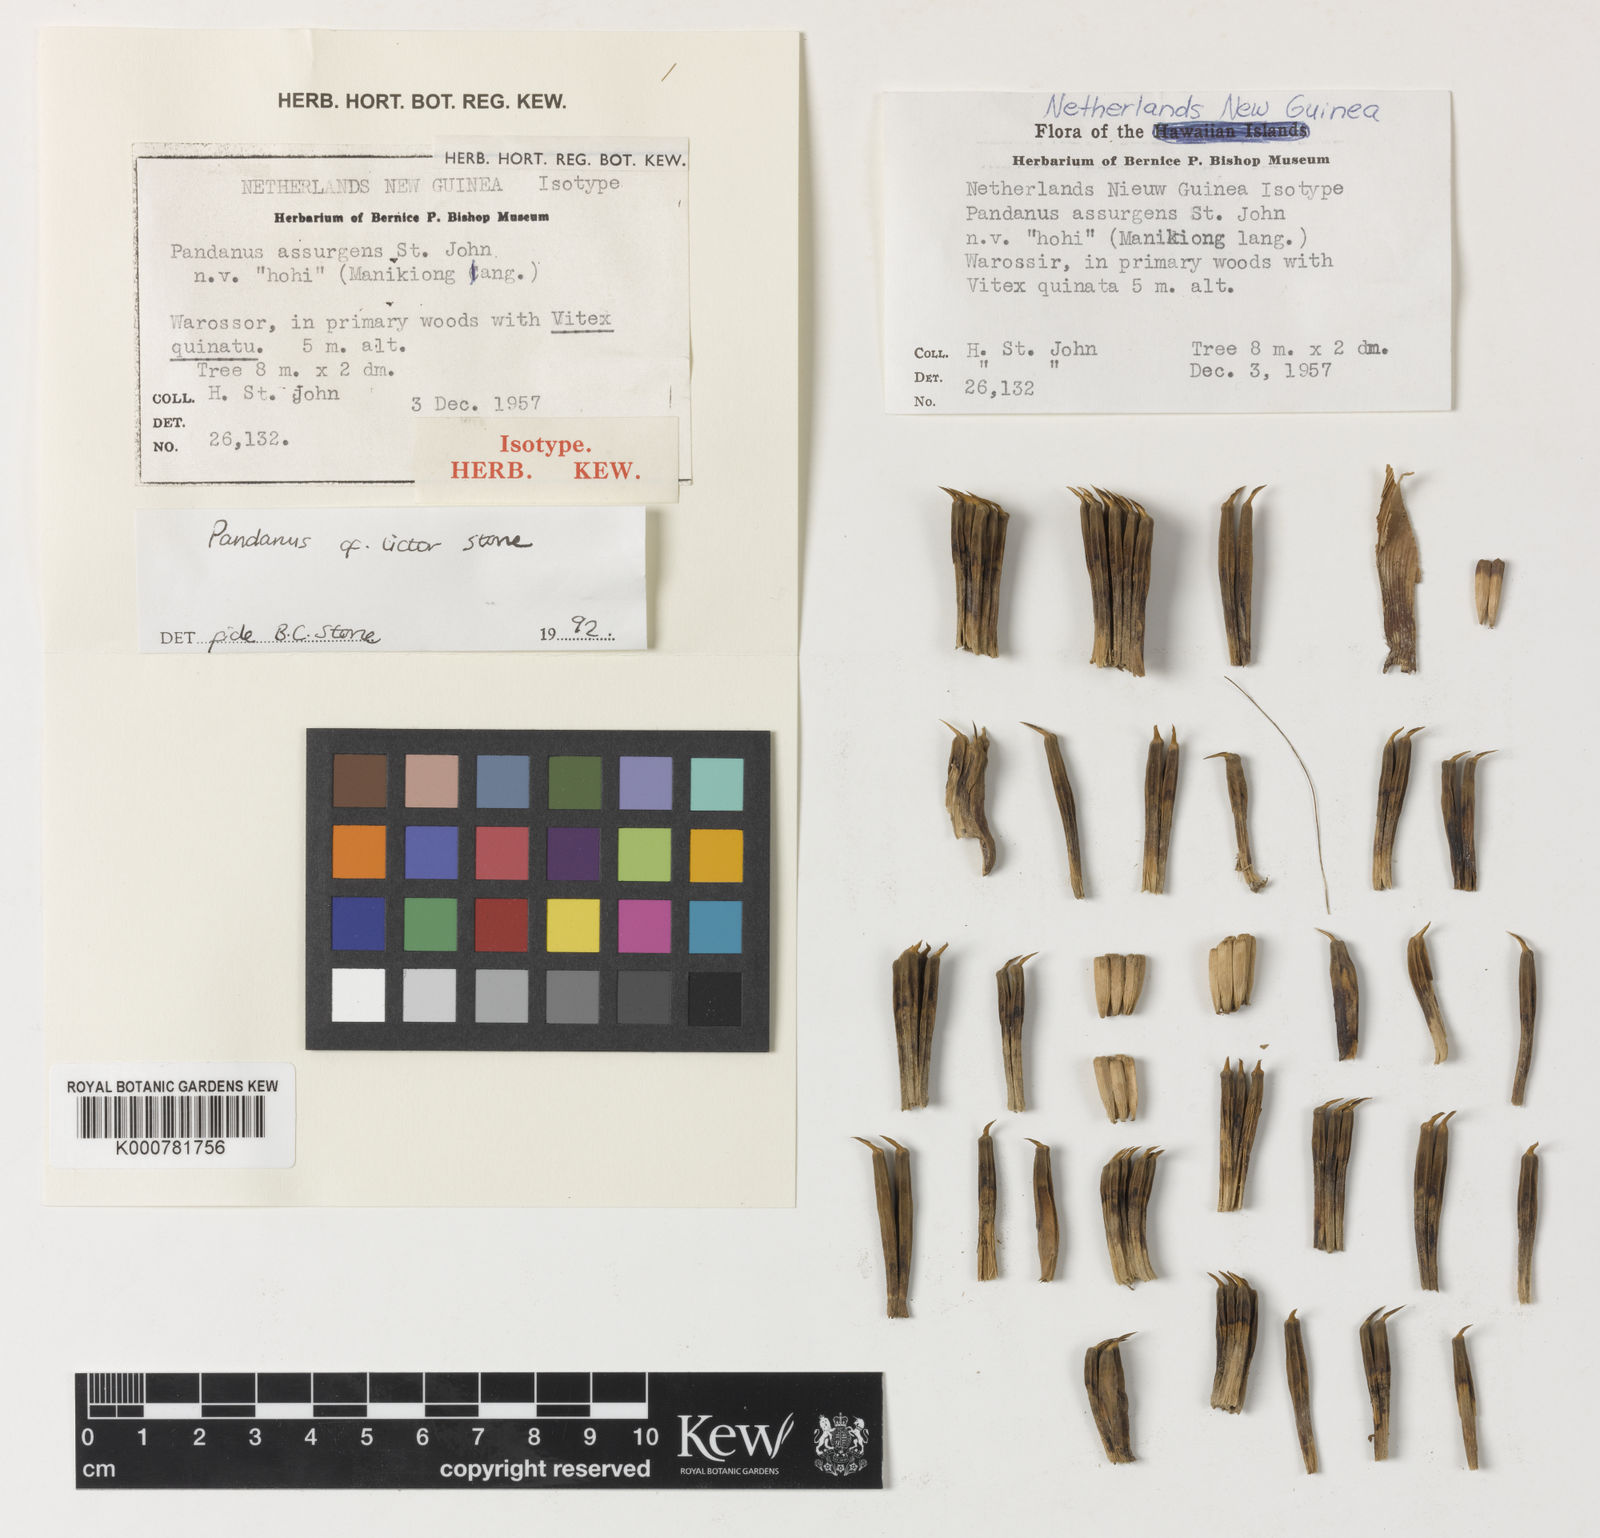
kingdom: Plantae
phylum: Tracheophyta
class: Liliopsida
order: Pandanales
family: Pandanaceae
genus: Benstonea
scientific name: Benstonea stenocarpa
